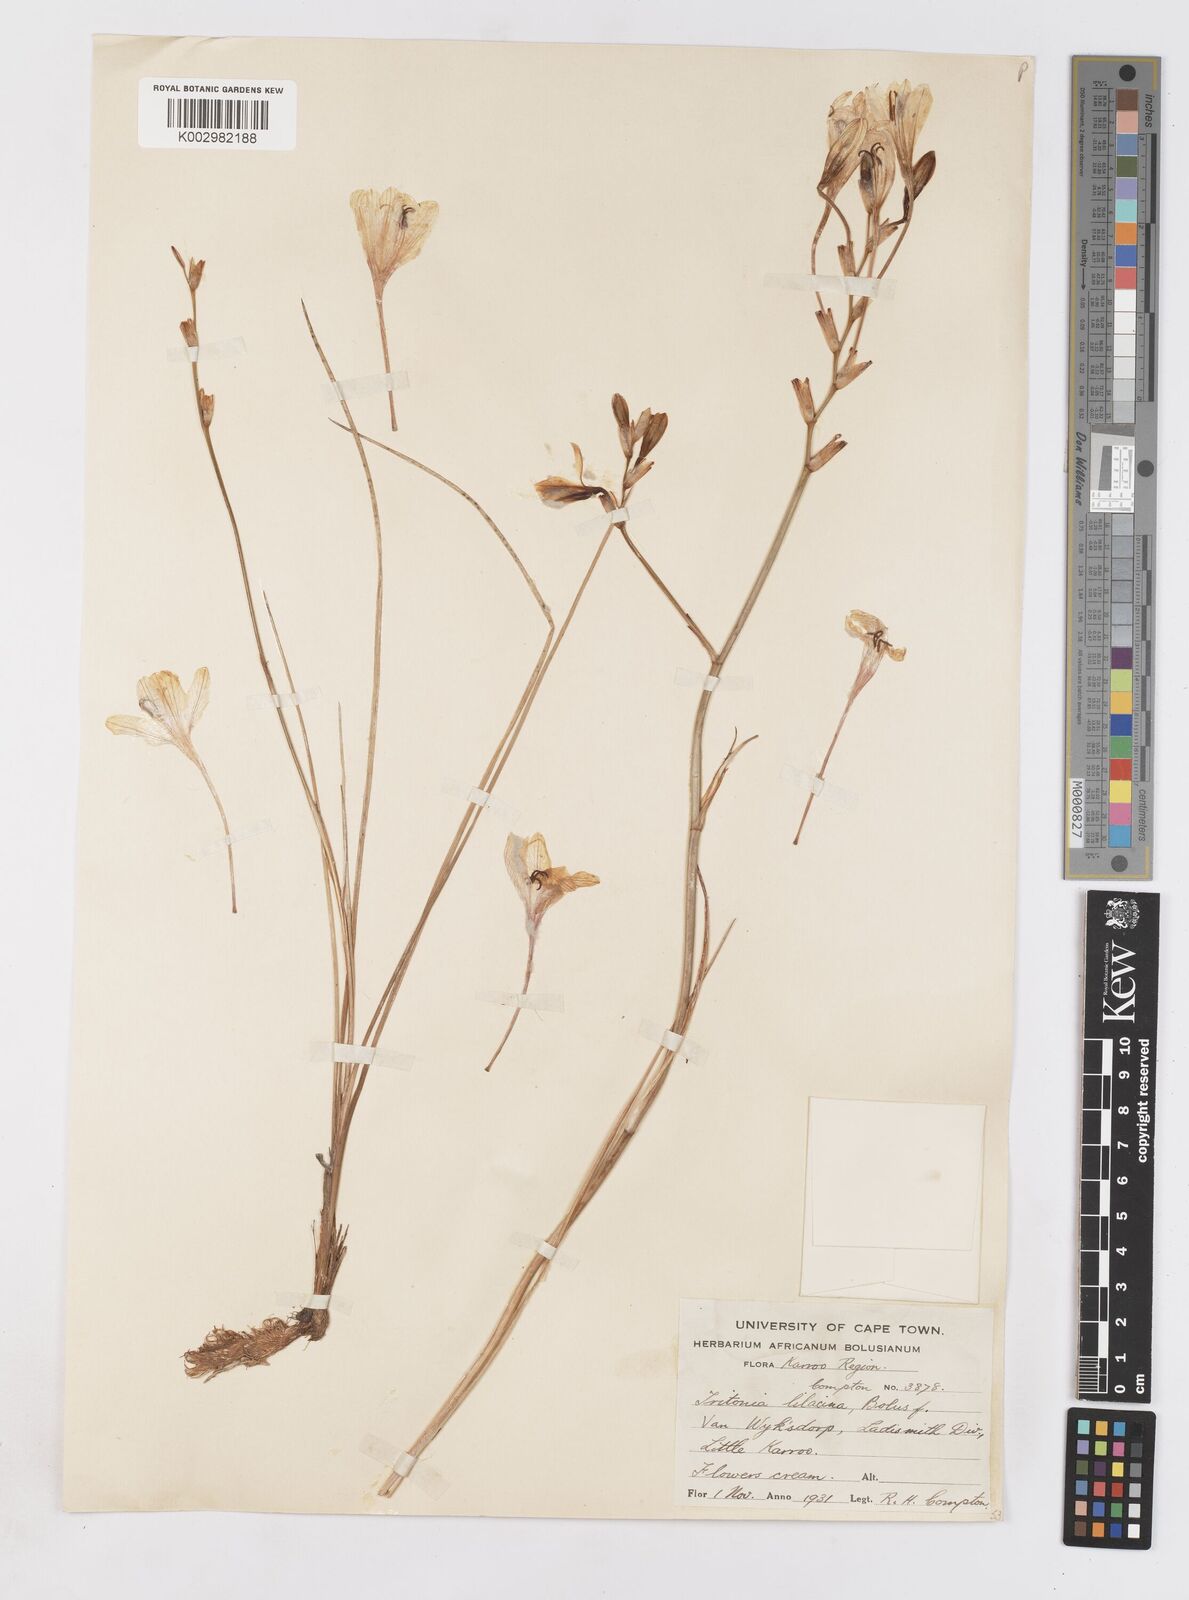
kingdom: Plantae
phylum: Tracheophyta
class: Liliopsida
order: Asparagales
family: Iridaceae
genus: Tritonia
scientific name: Tritonia bakeri
